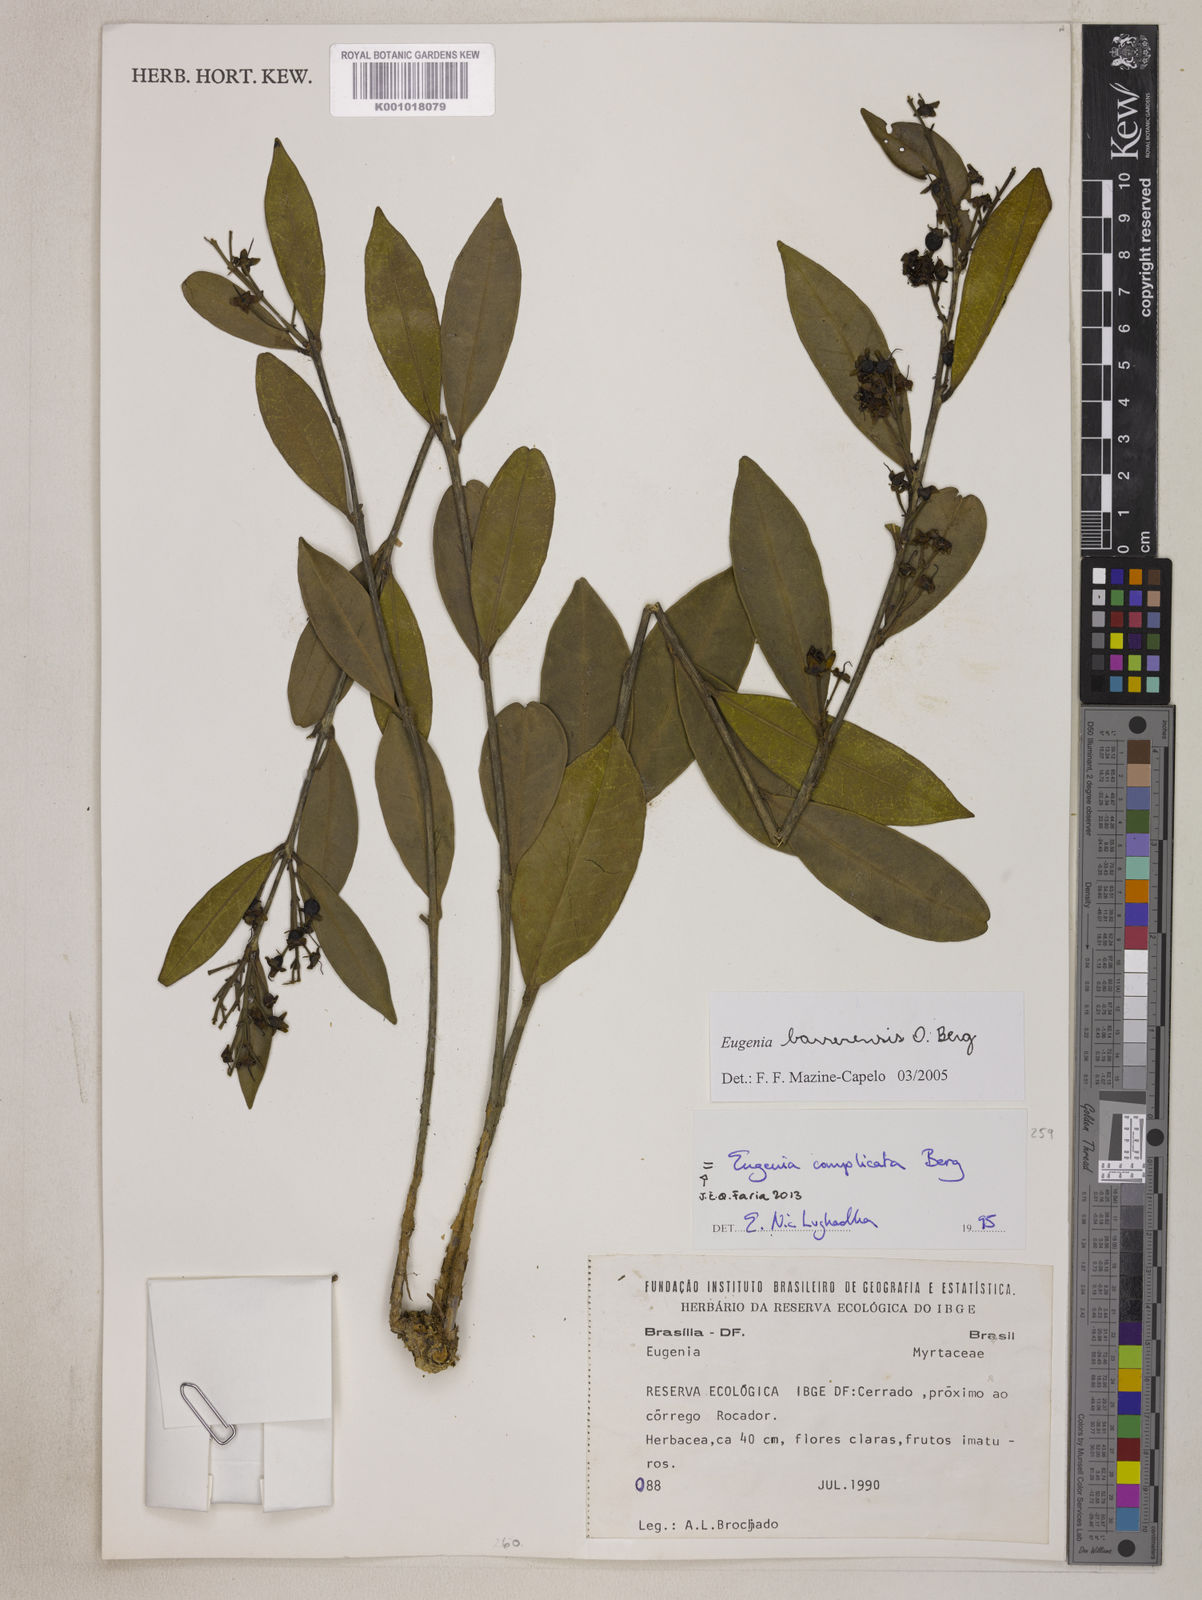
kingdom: Plantae
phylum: Tracheophyta
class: Magnoliopsida
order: Myrtales
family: Myrtaceae
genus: Eugenia
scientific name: Eugenia complicata
